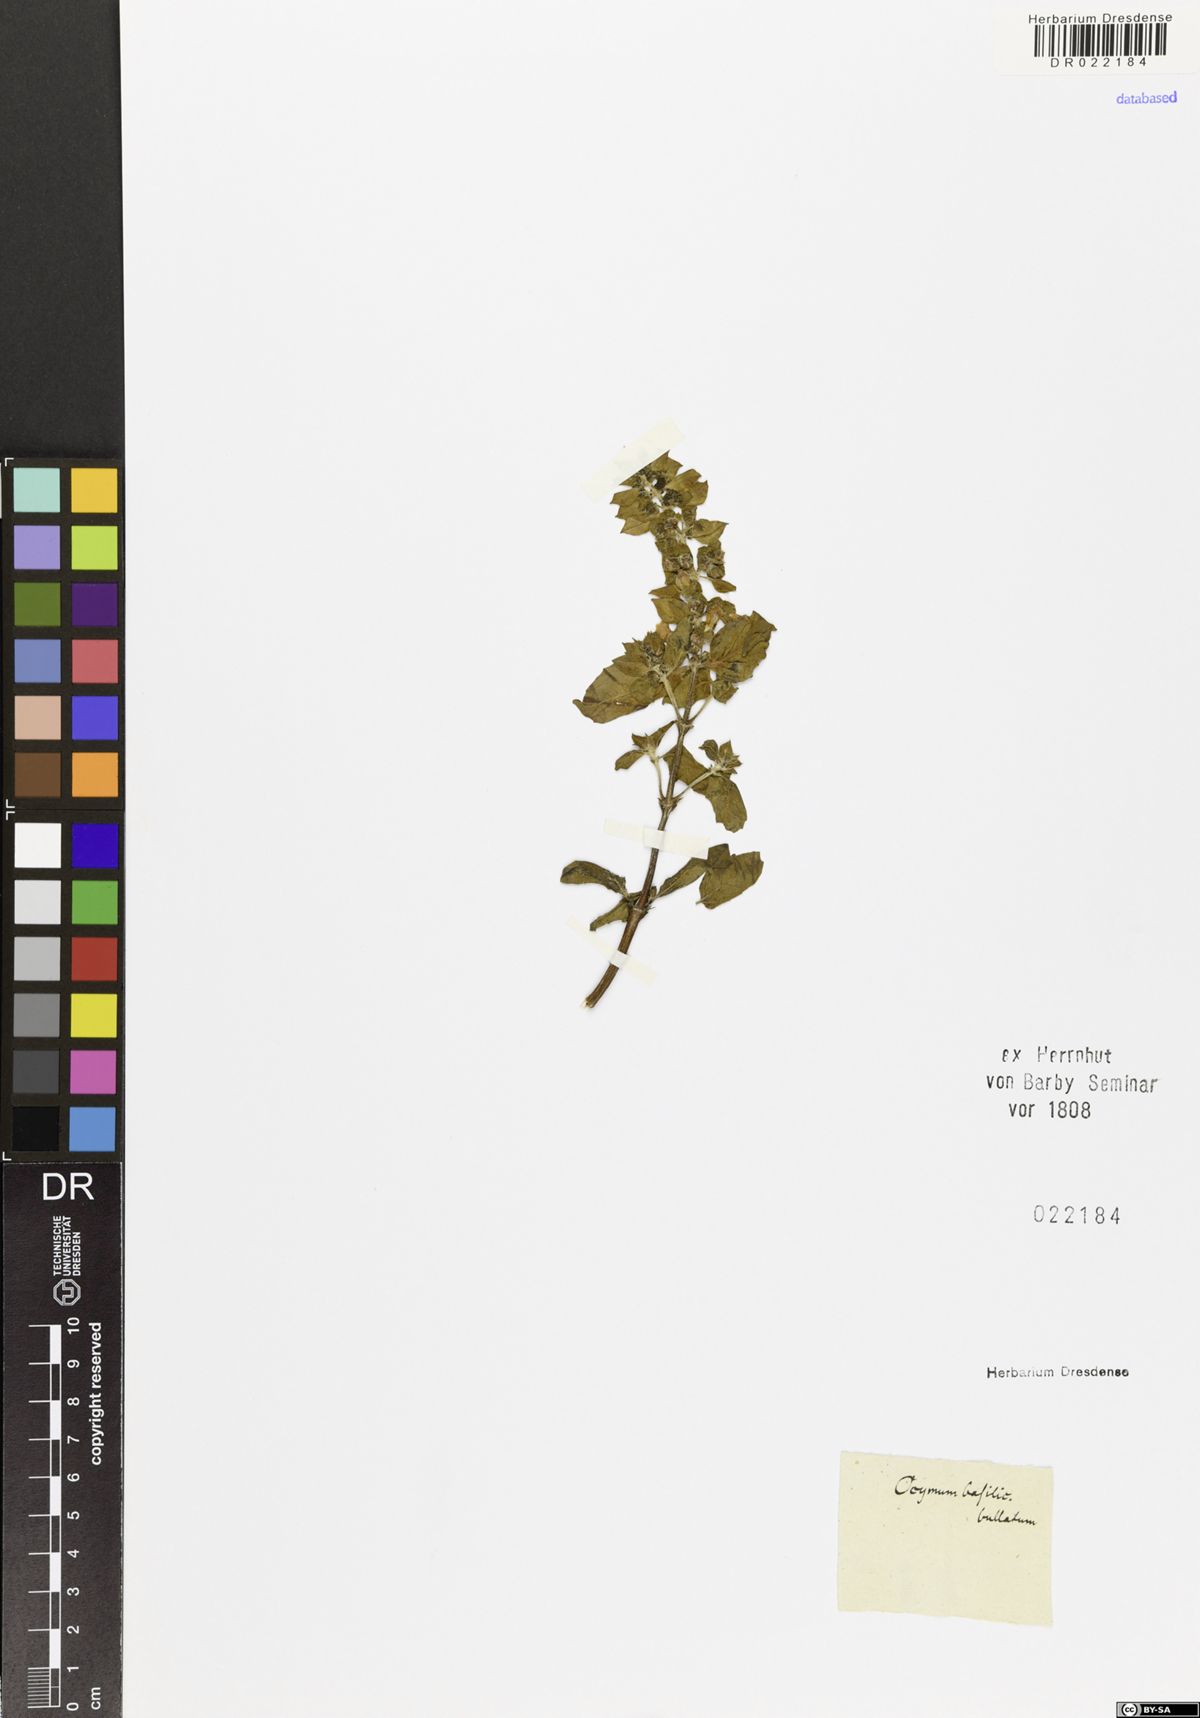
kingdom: Plantae
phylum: Tracheophyta
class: Magnoliopsida
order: Lamiales
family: Lamiaceae
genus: Ocimum
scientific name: Ocimum basilicum
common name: Sweet basil
